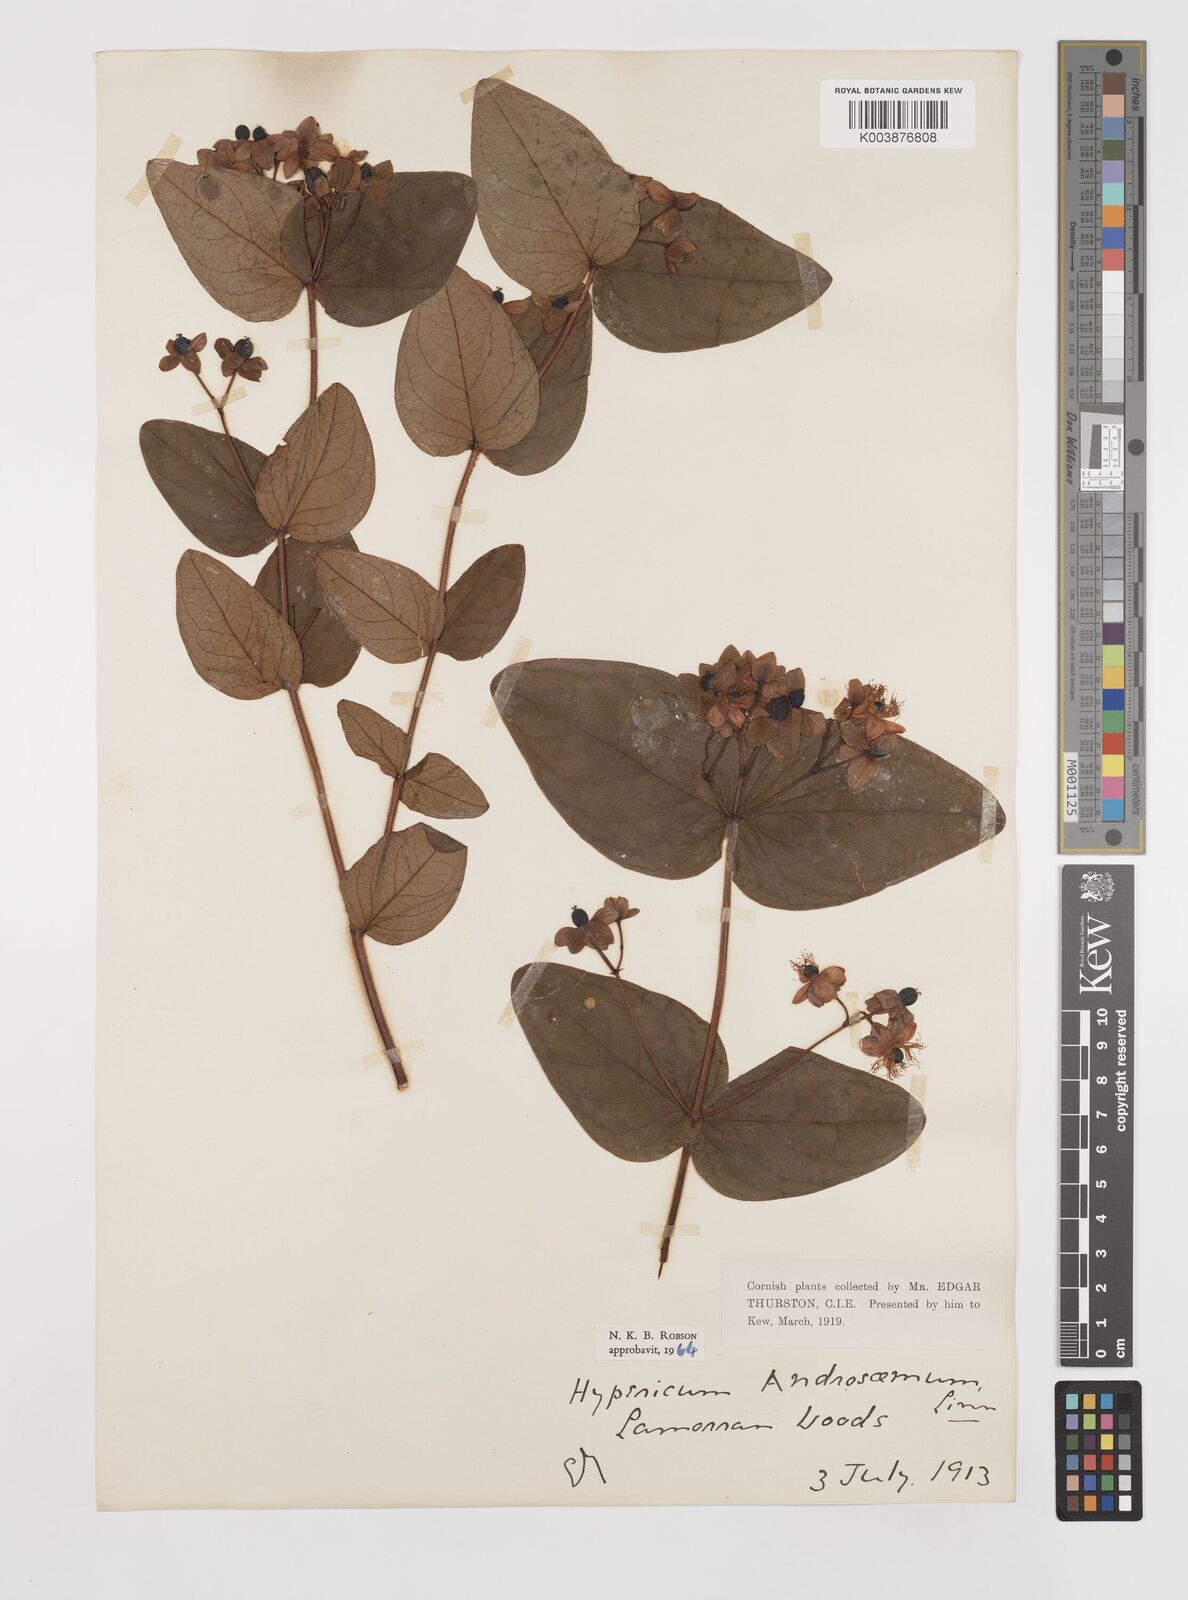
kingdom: Plantae
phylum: Tracheophyta
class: Magnoliopsida
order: Malpighiales
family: Hypericaceae
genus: Hypericum
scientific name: Hypericum androsaemum
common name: Sweet-amber
